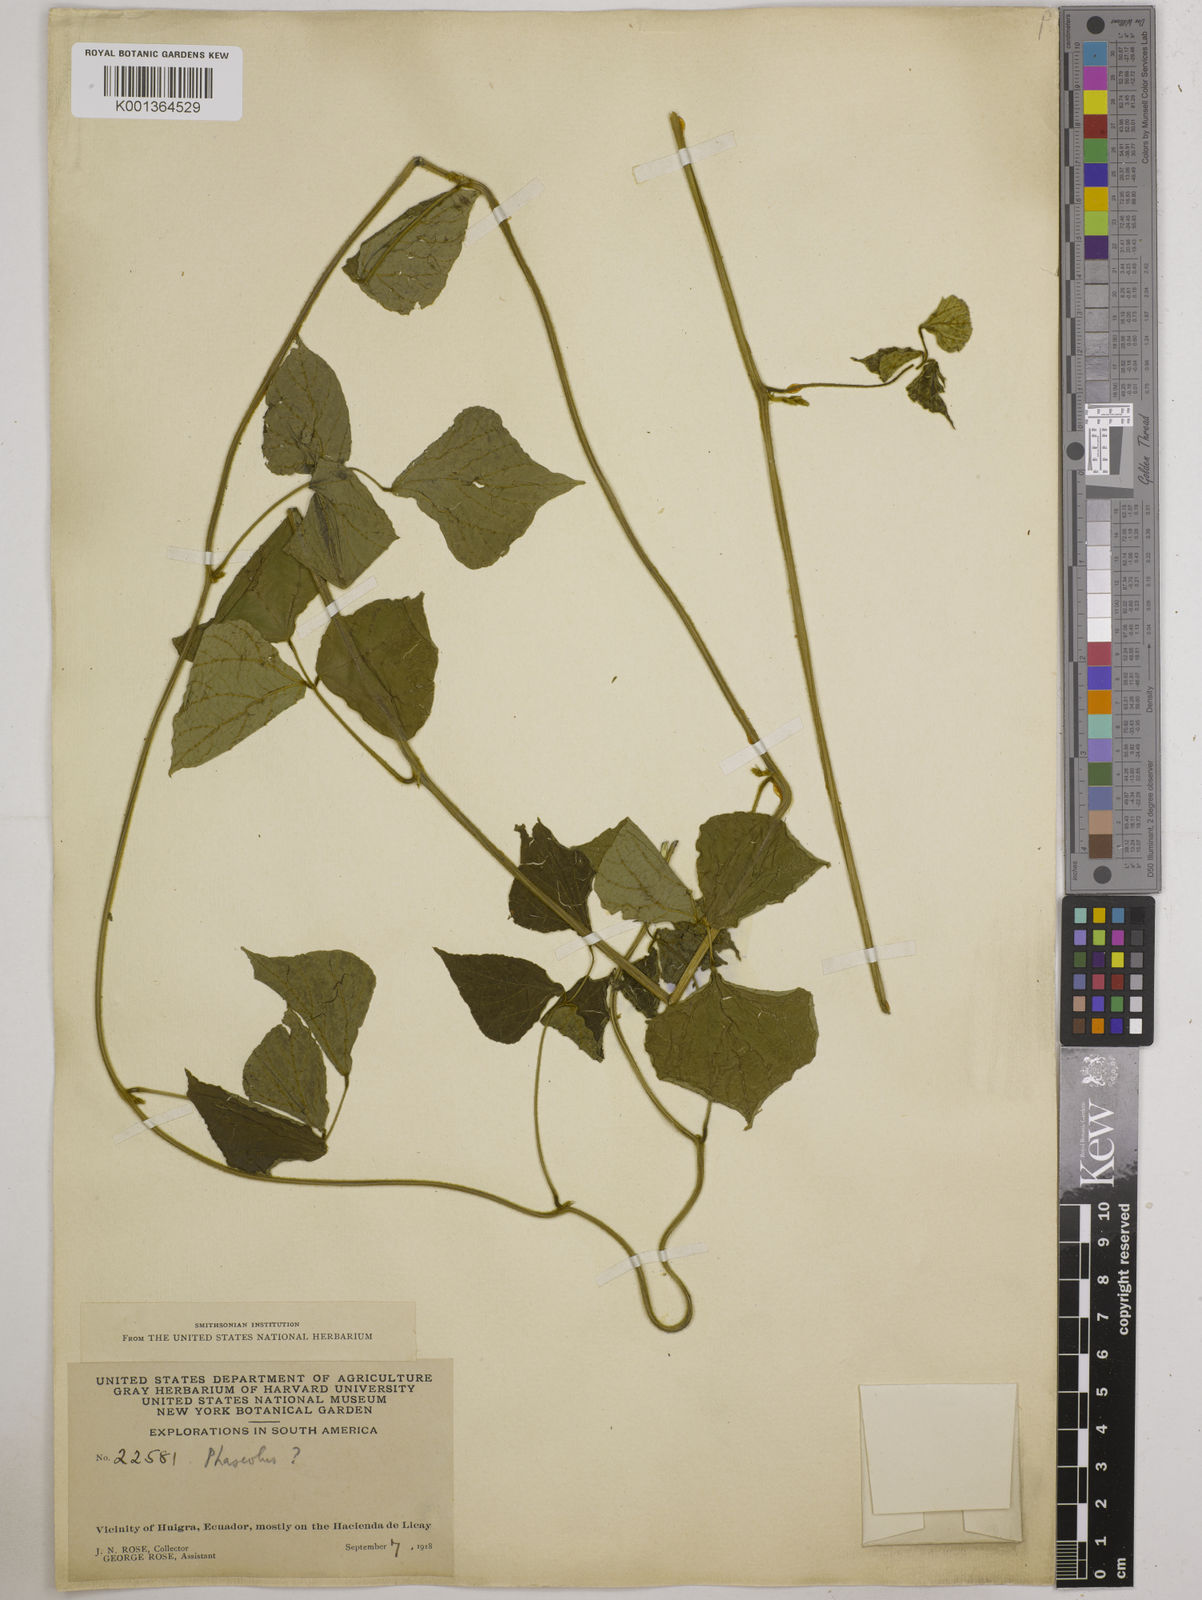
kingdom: Plantae
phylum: Tracheophyta
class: Magnoliopsida
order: Fabales
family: Fabaceae
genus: Phaseolus
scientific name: Phaseolus
